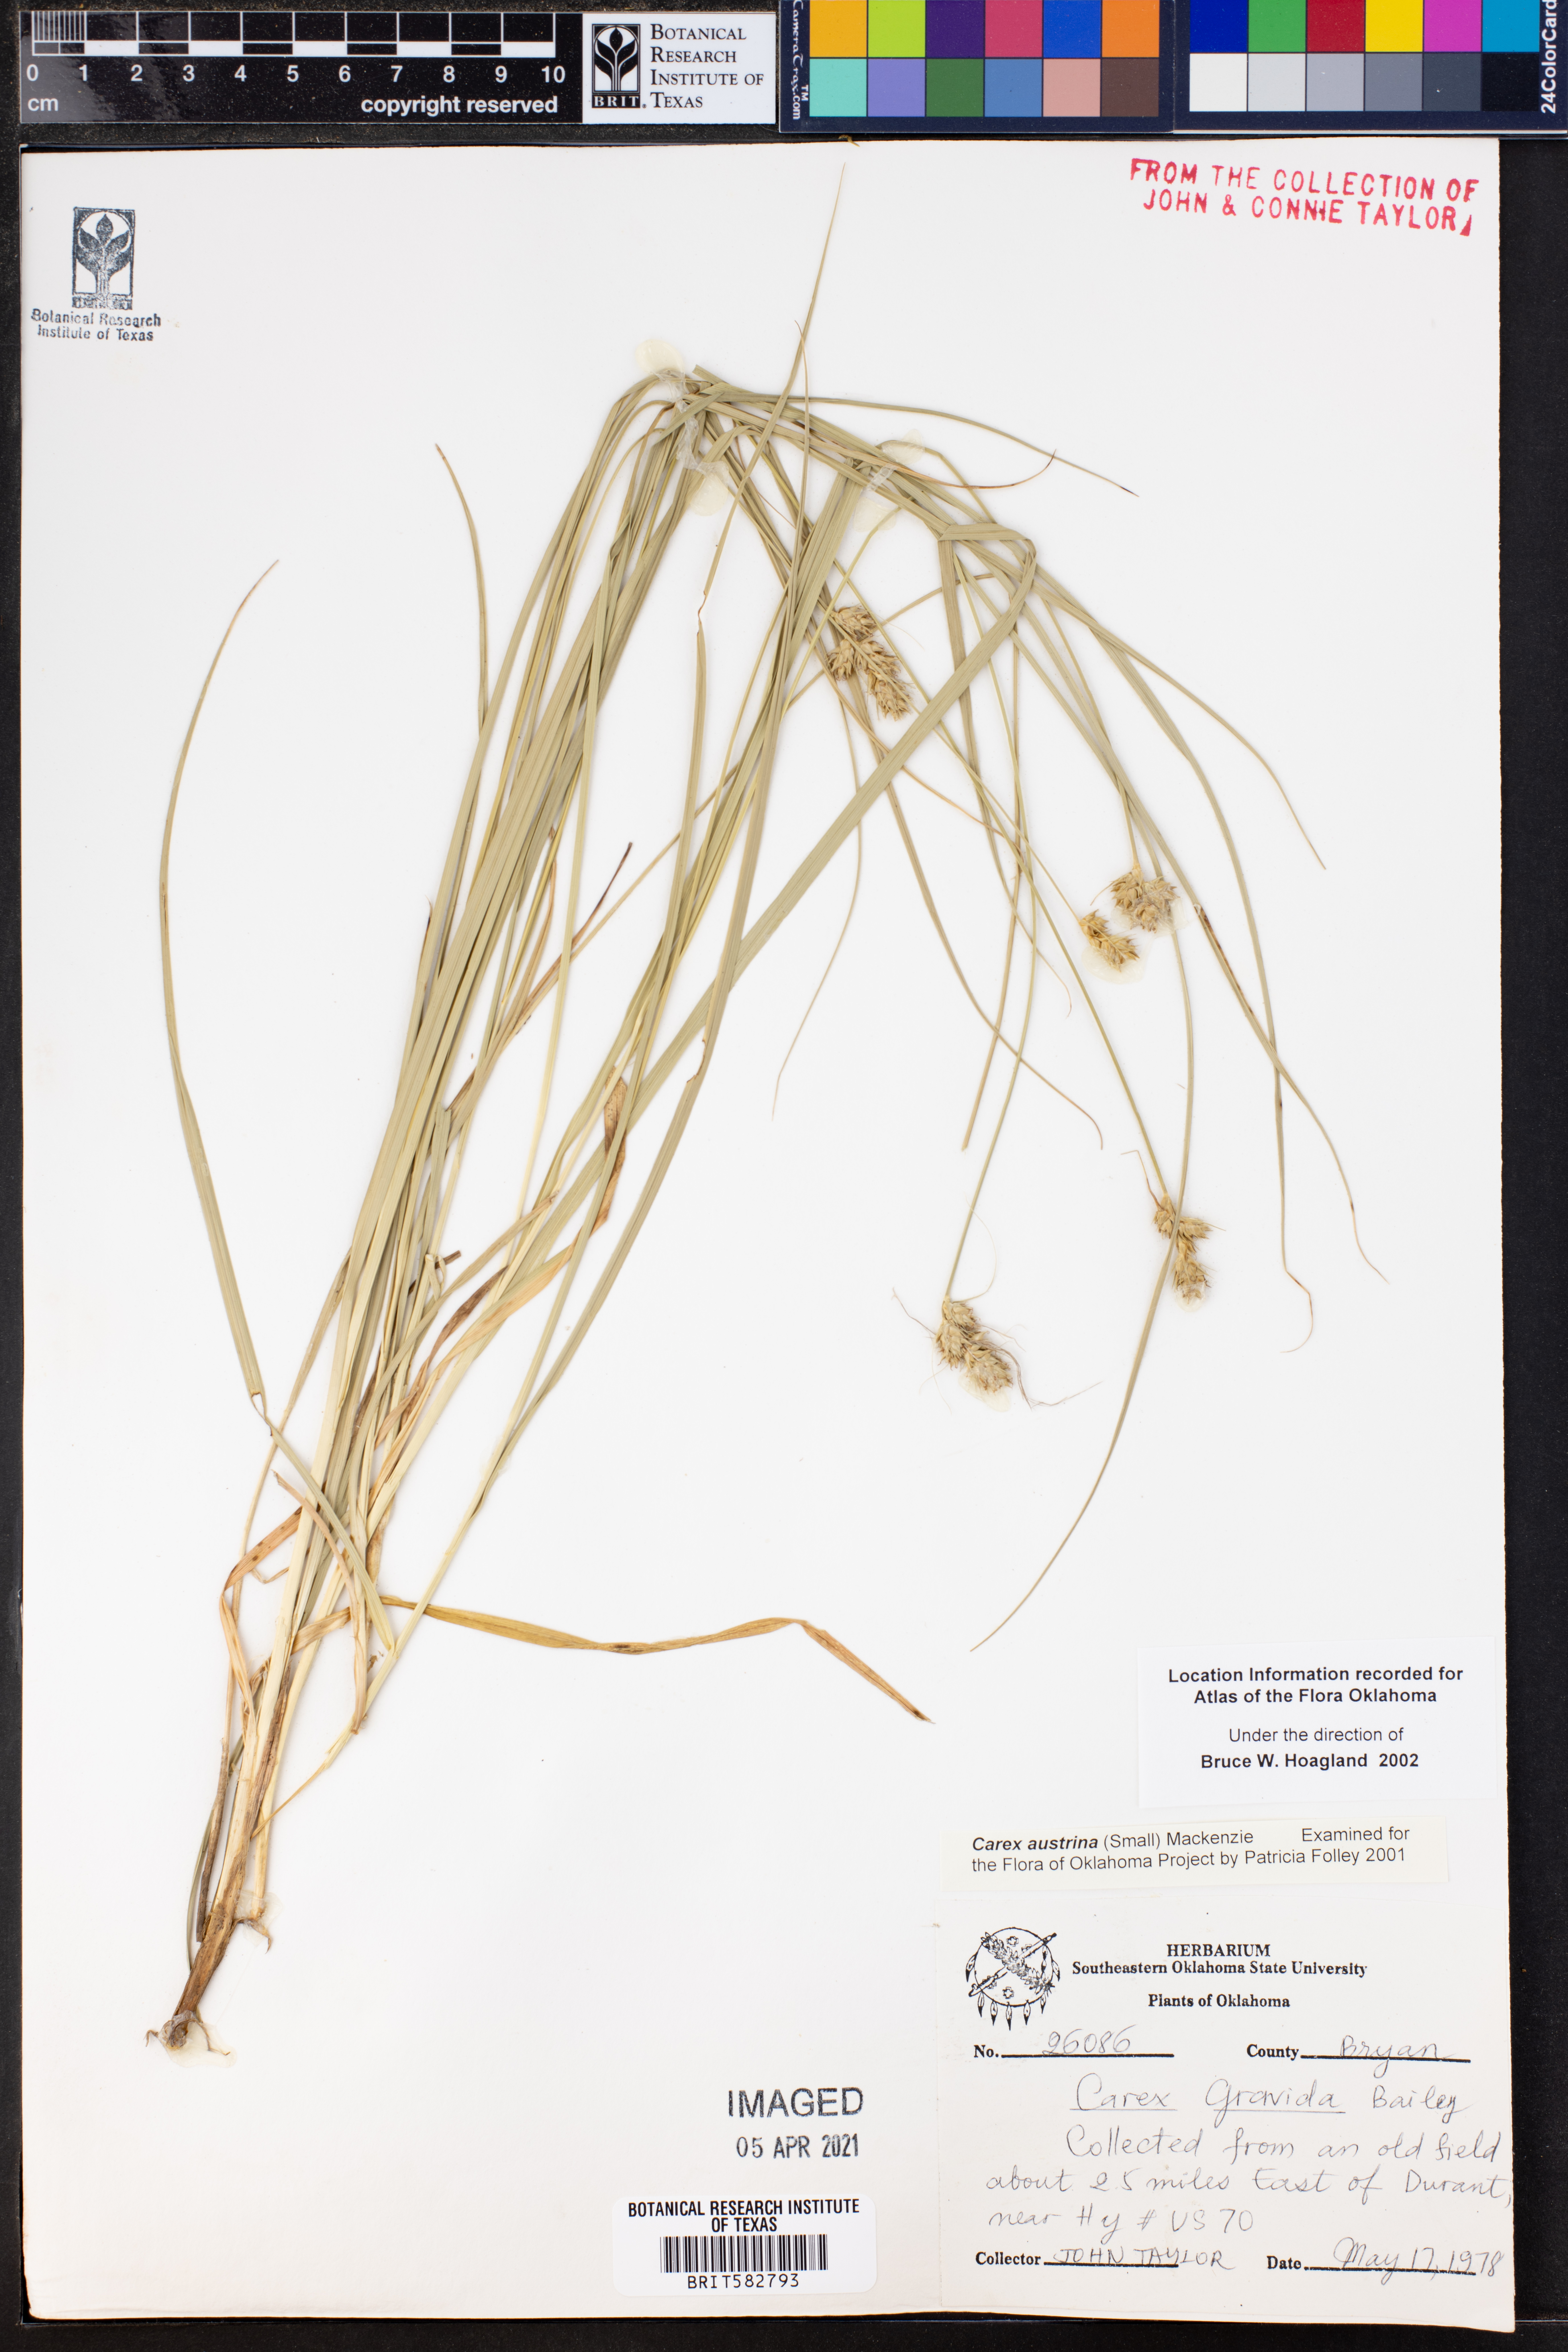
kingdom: Plantae
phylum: Tracheophyta
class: Liliopsida
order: Poales
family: Cyperaceae
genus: Carex
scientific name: Carex austrina
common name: Southern sedge
